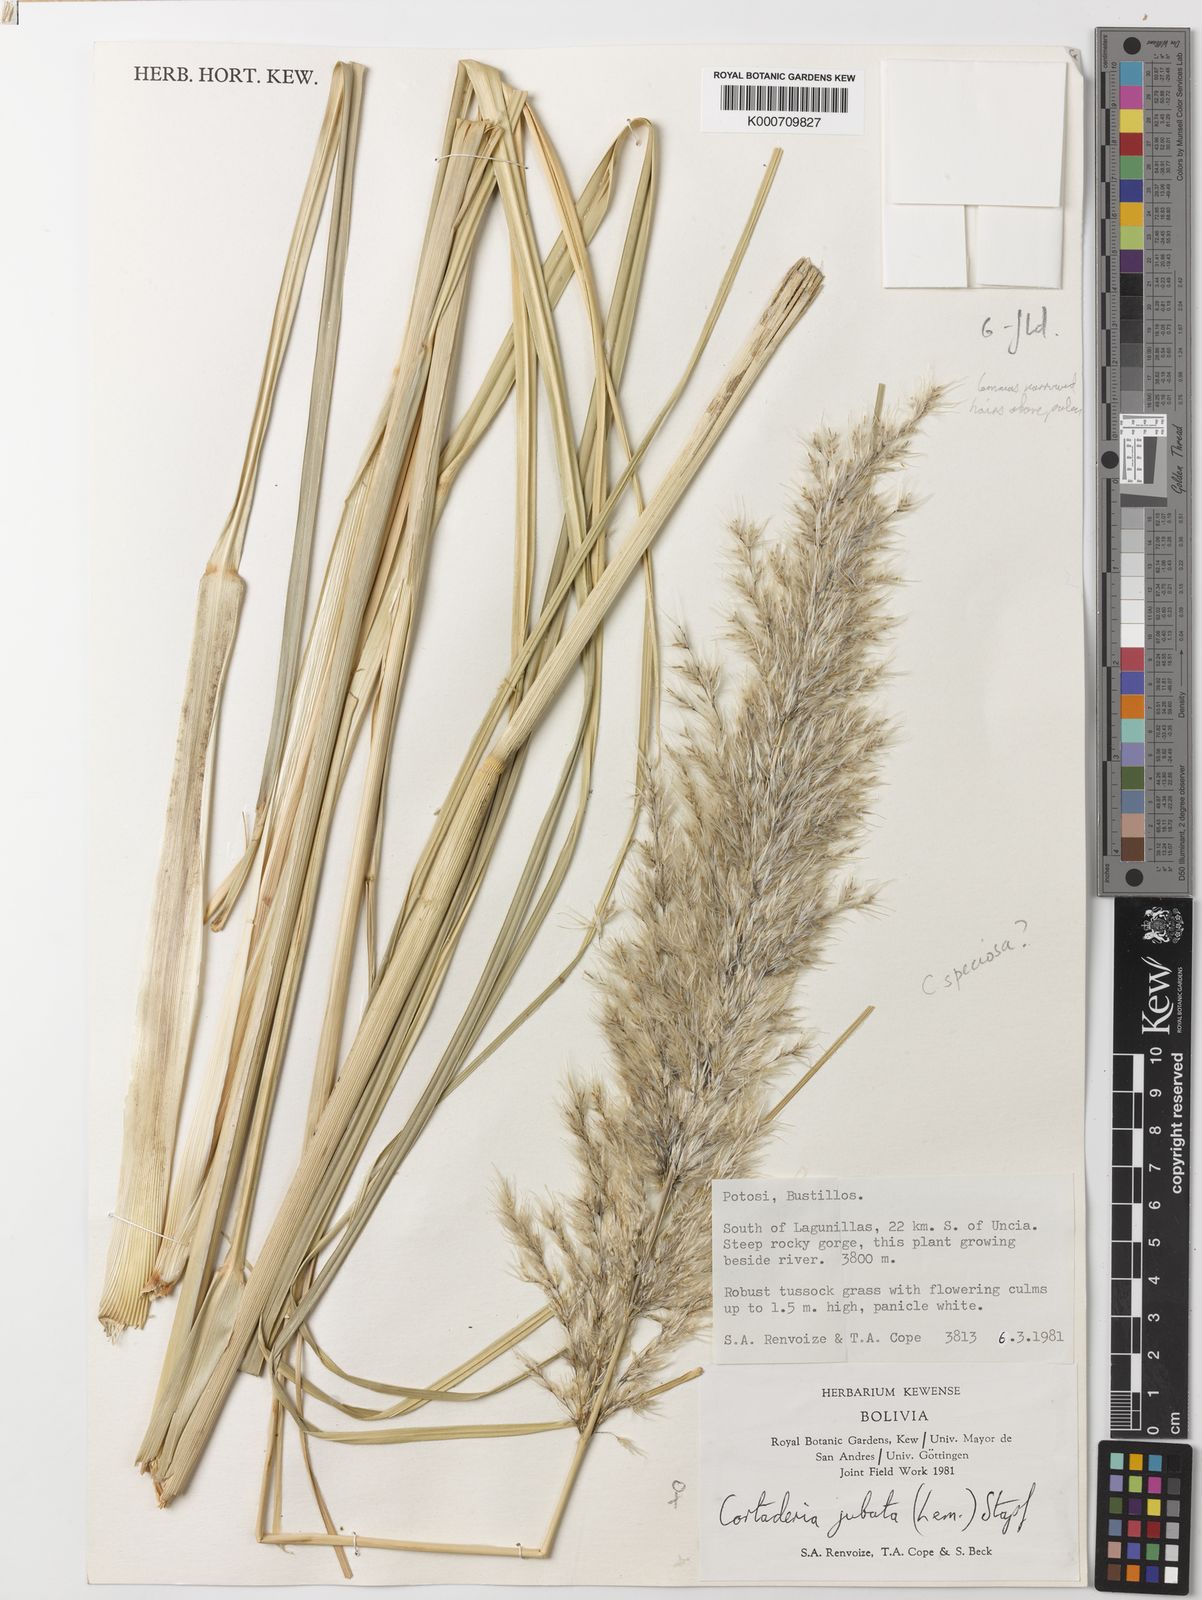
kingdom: Plantae
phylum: Tracheophyta
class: Liliopsida
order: Poales
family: Poaceae
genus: Cortaderia
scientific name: Cortaderia speciosa
